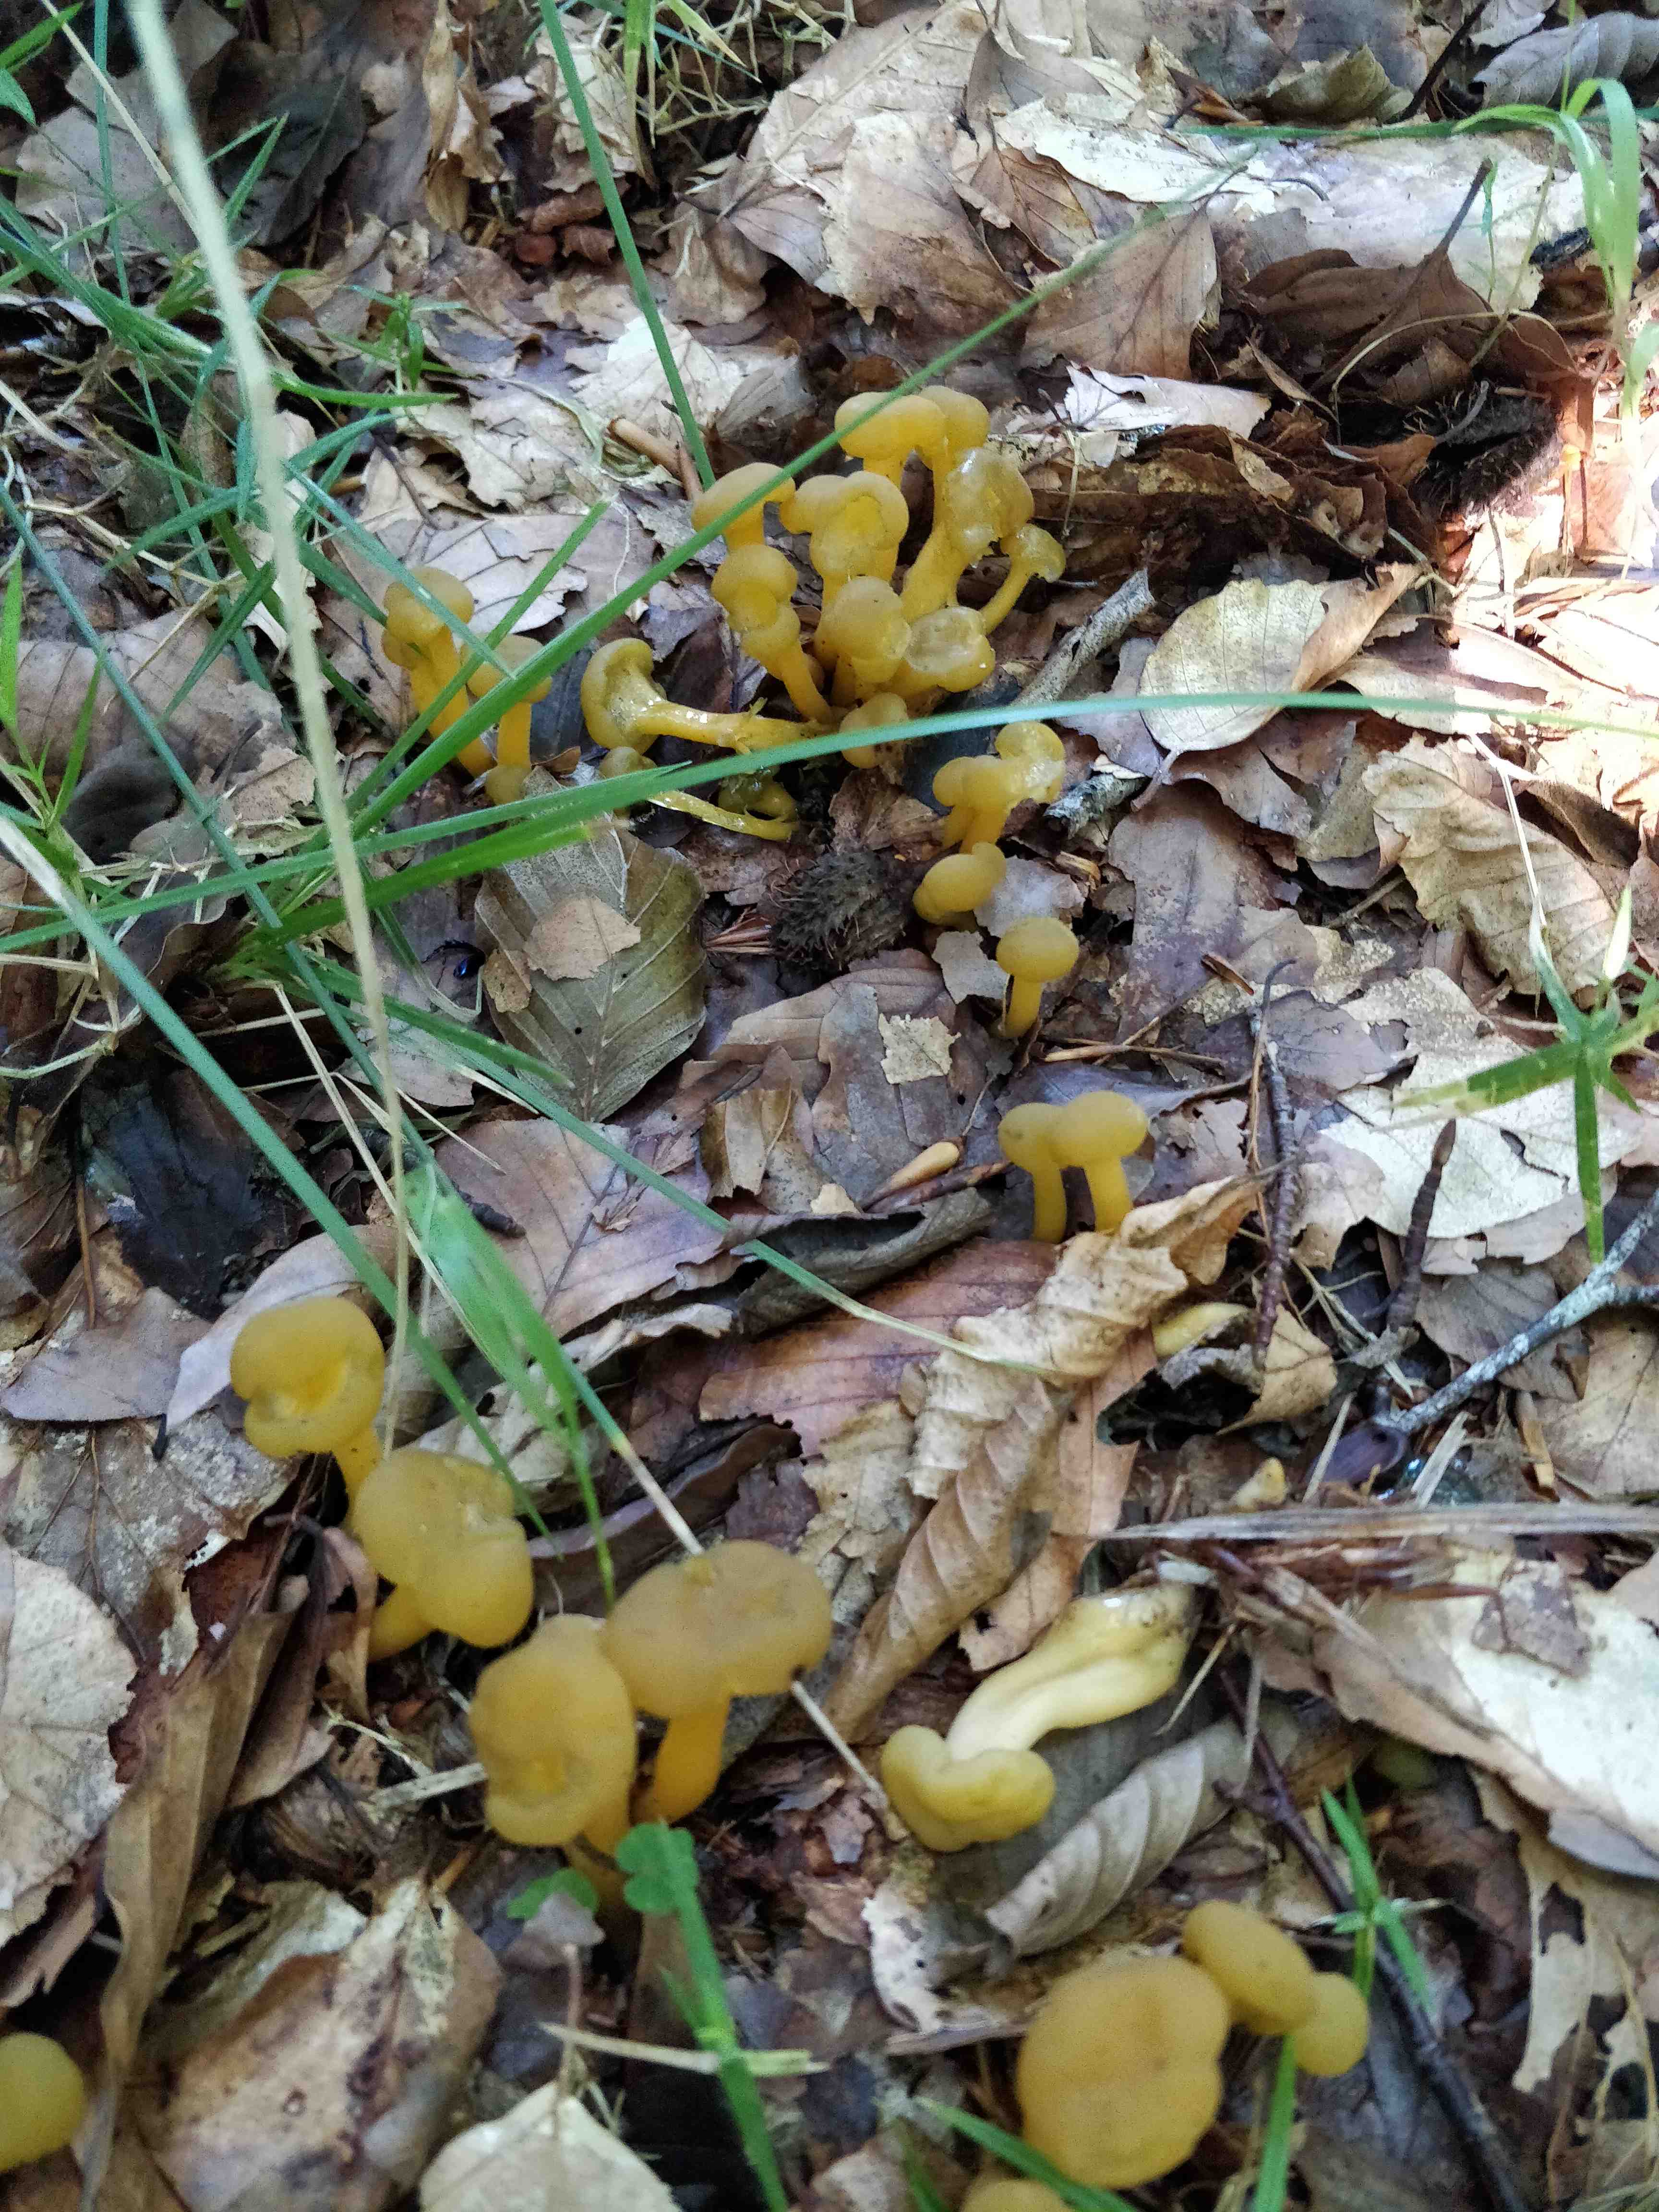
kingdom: Fungi
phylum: Ascomycota
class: Leotiomycetes
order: Leotiales
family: Leotiaceae
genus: Leotia
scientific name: Leotia lubrica
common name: ravsvamp
